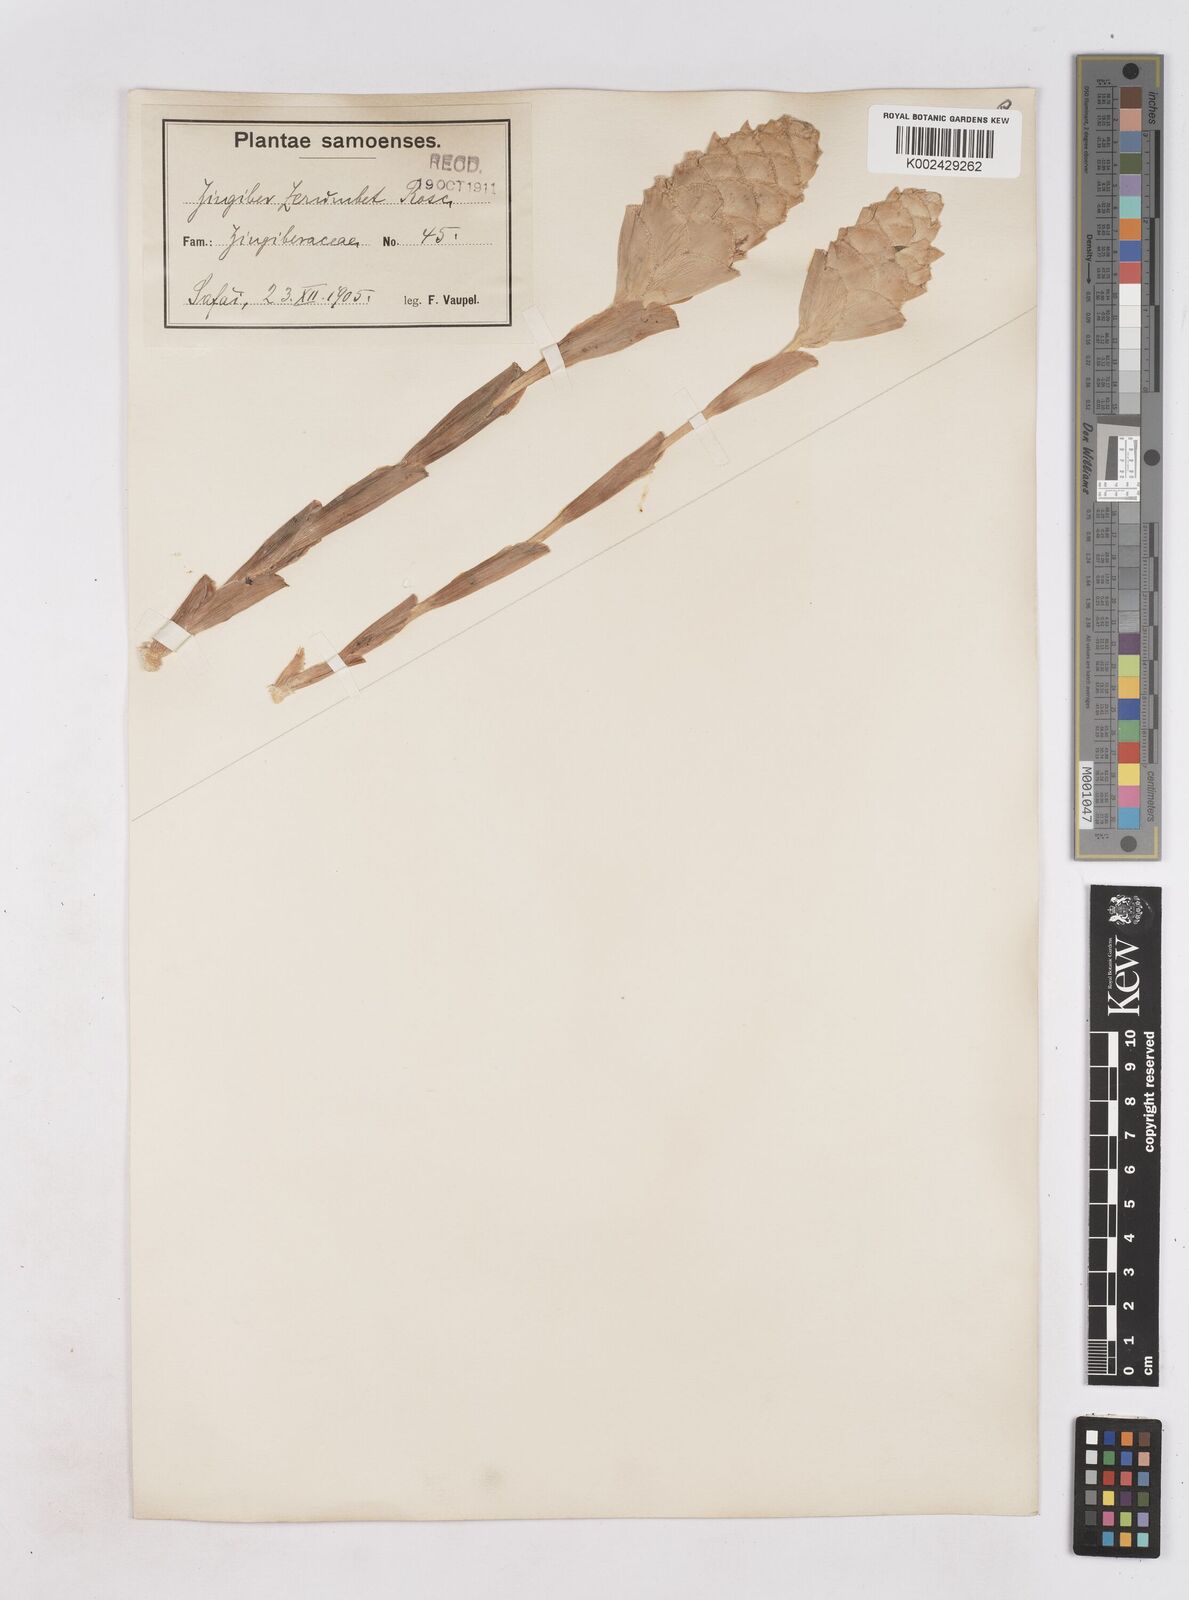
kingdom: Plantae
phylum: Tracheophyta
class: Liliopsida
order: Zingiberales
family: Zingiberaceae
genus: Zingiber
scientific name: Zingiber zerumbet
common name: Bitter ginger
